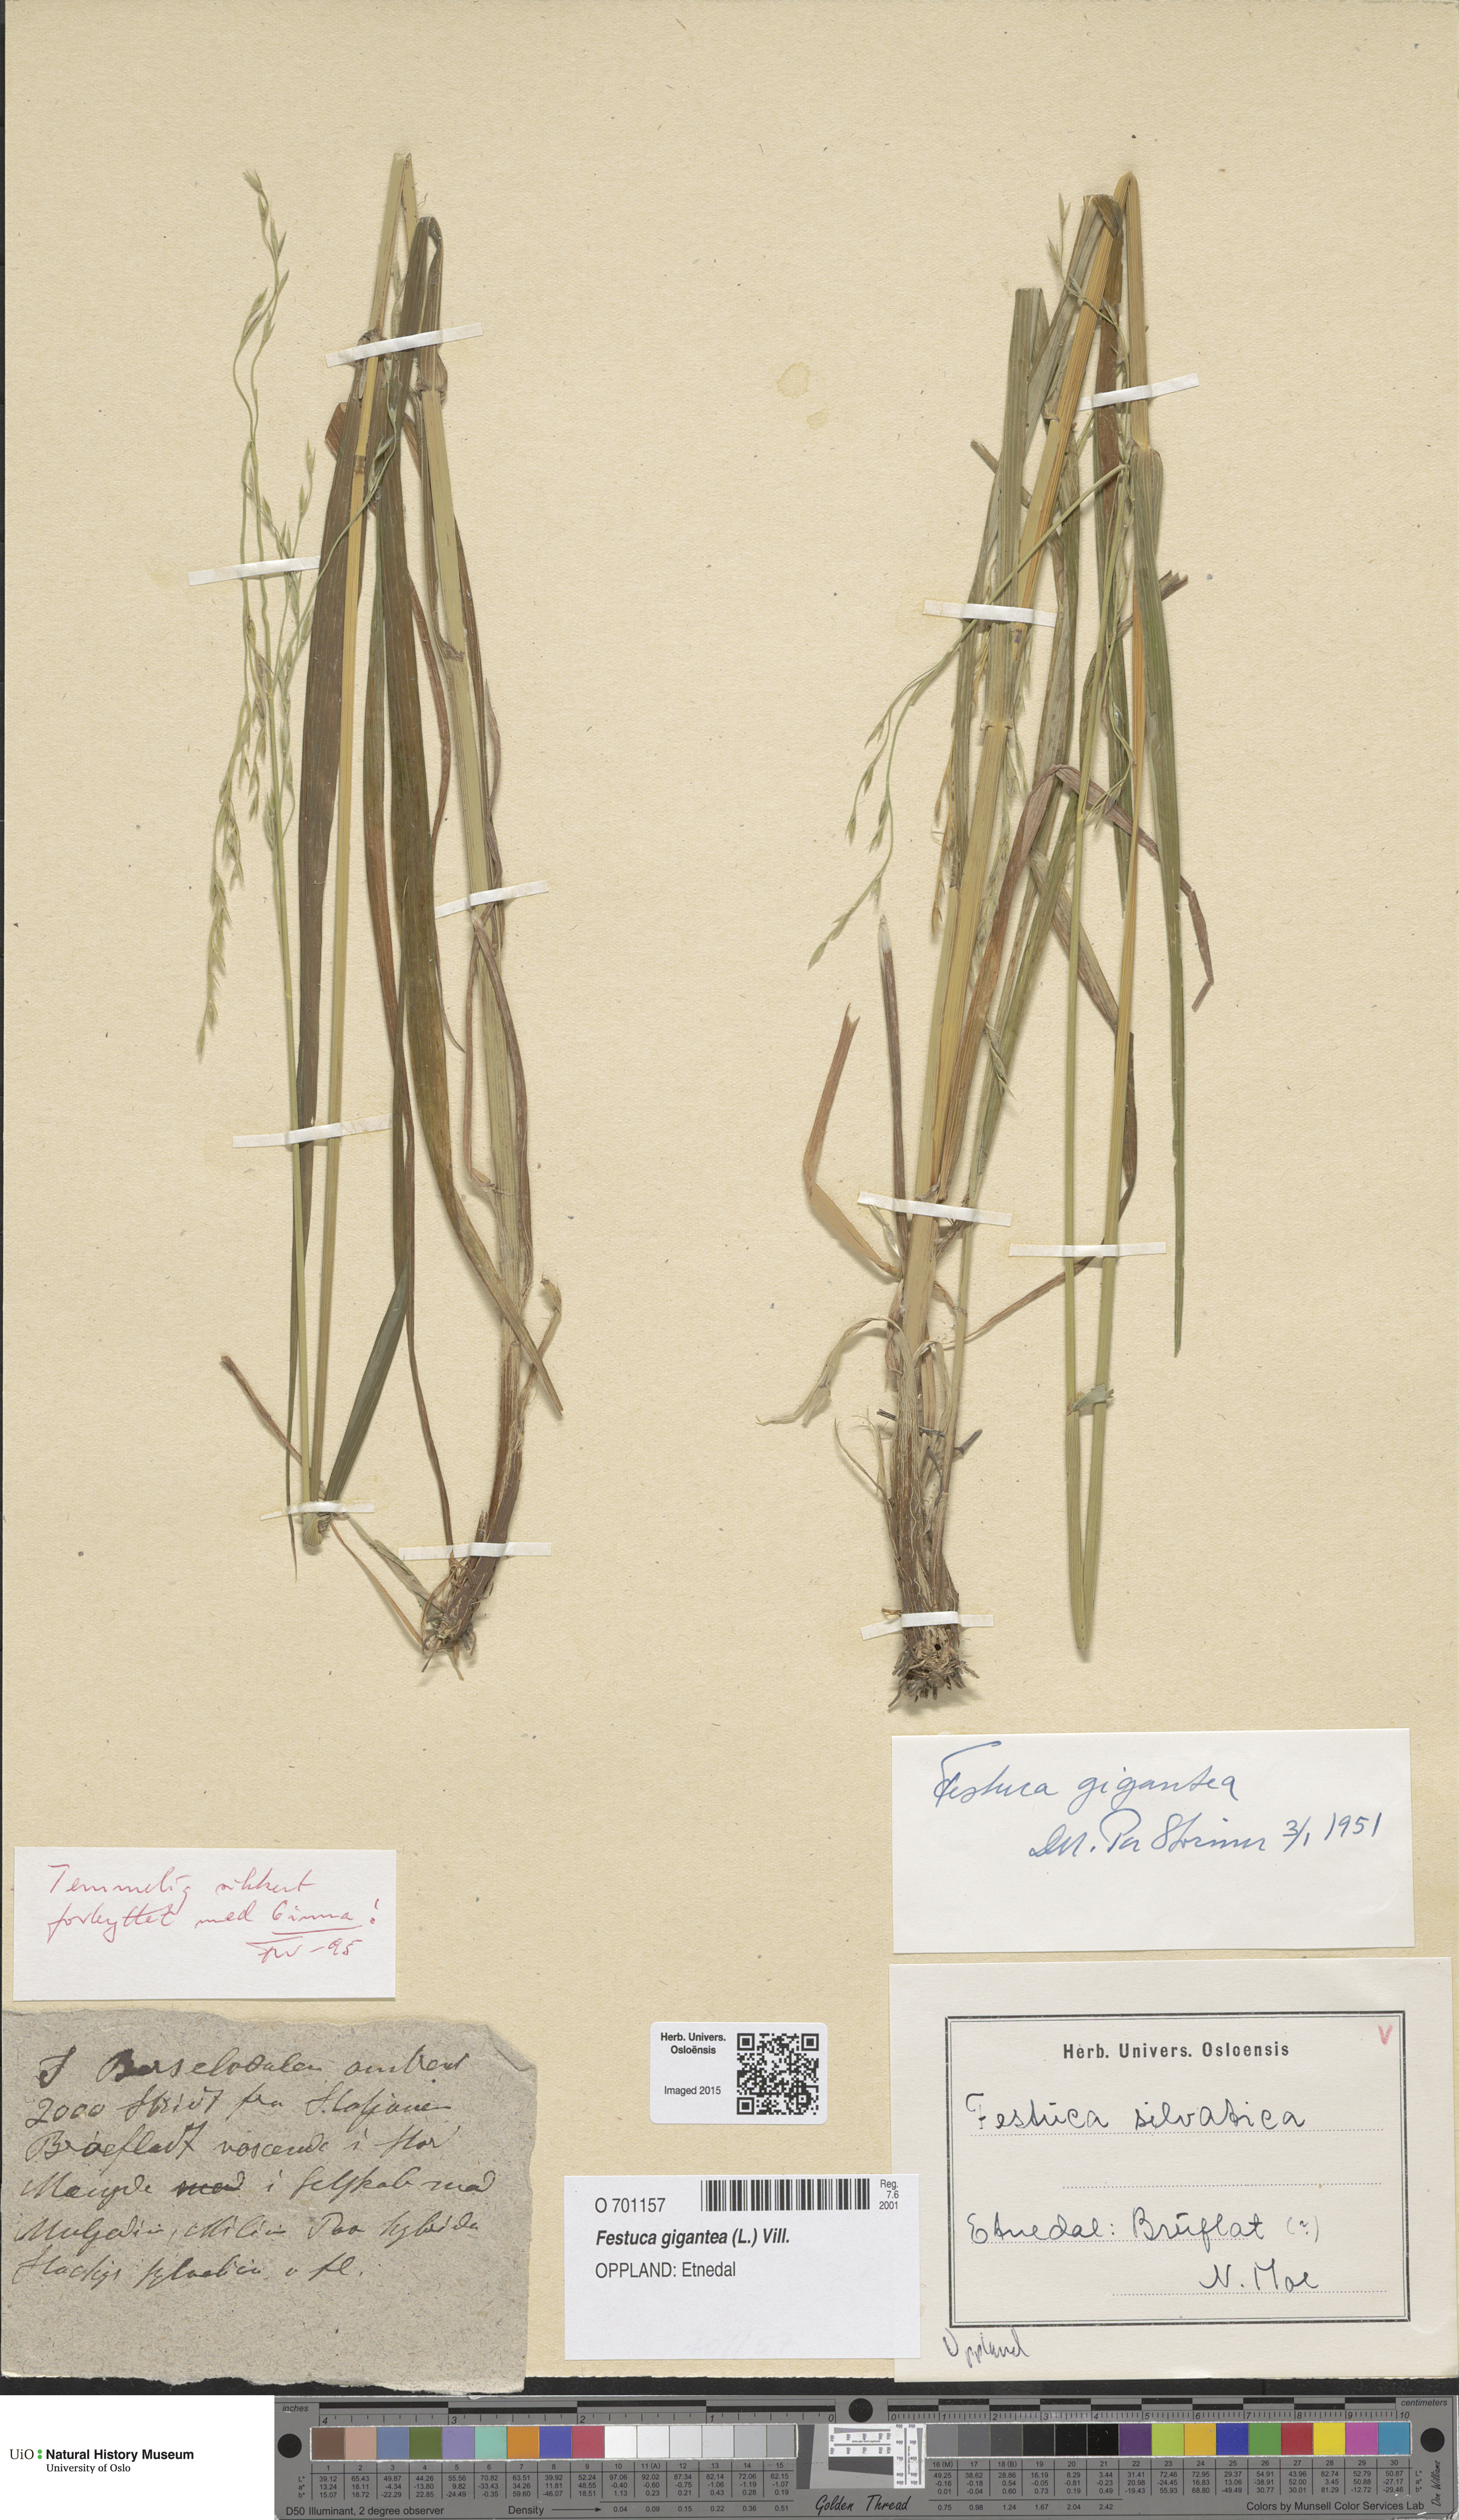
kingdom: Plantae
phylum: Tracheophyta
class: Liliopsida
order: Poales
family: Poaceae
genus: Lolium
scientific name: Lolium giganteum
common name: Giant fescue
